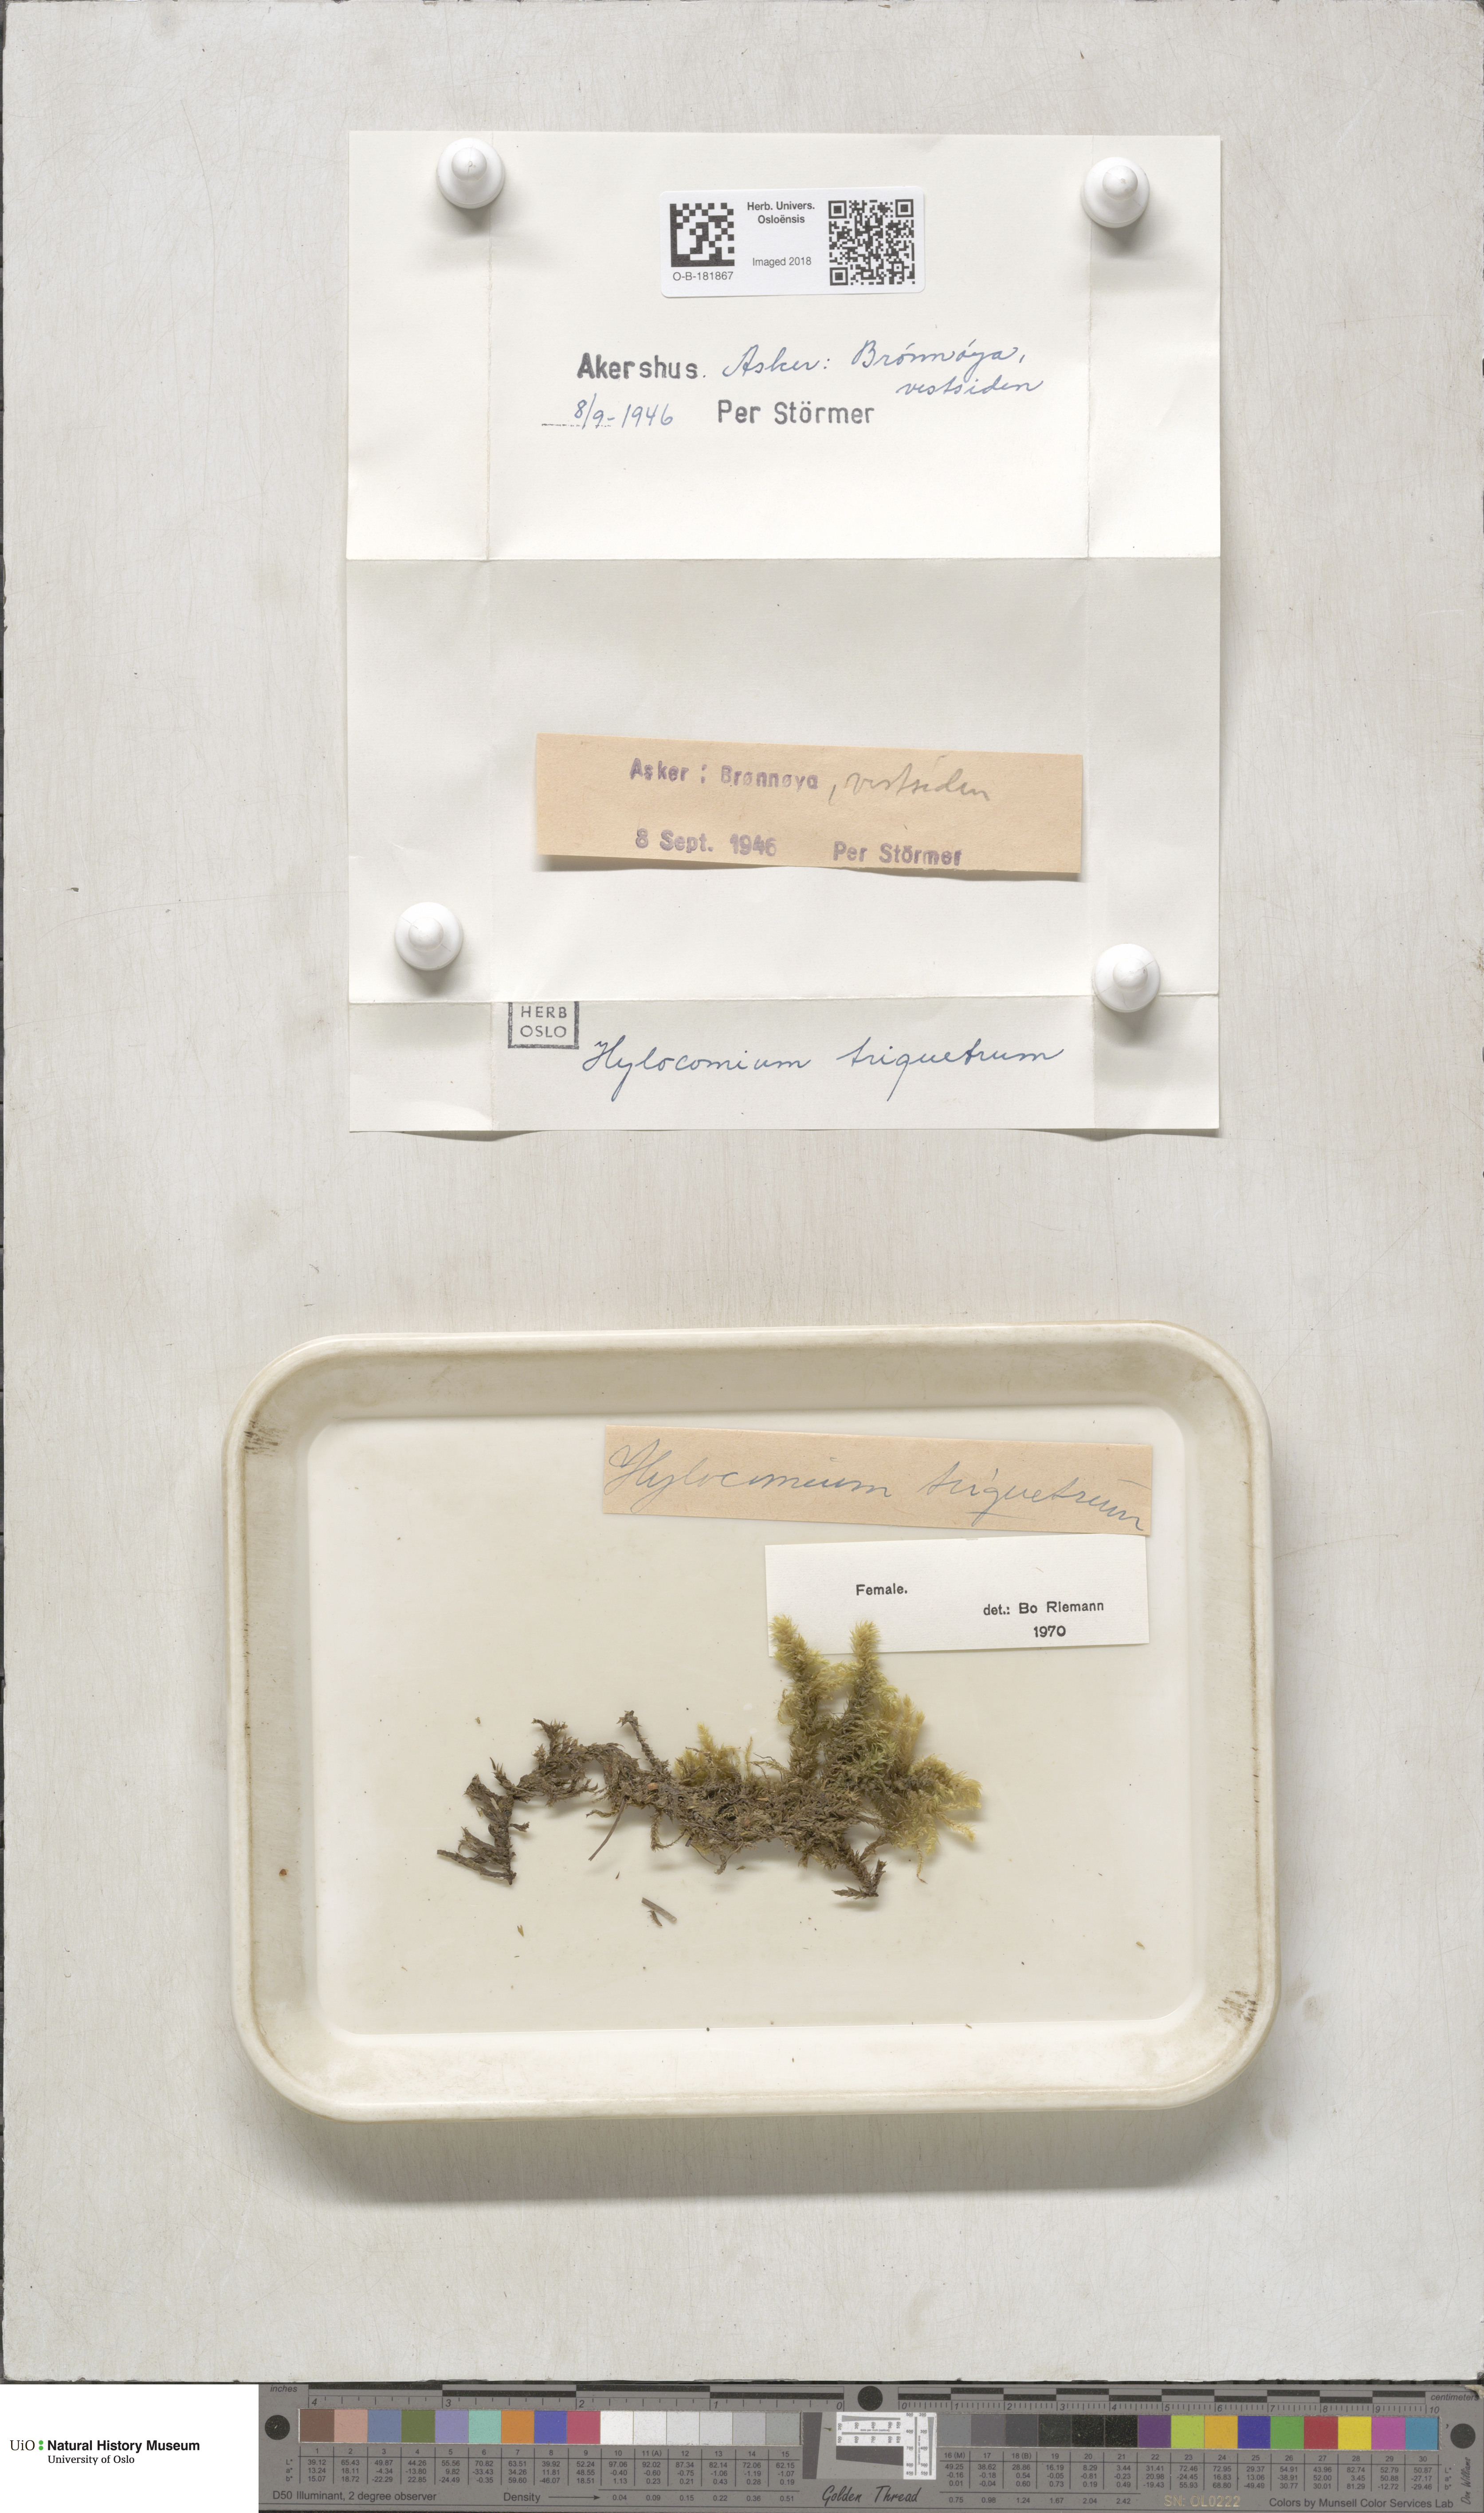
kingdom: Plantae
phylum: Bryophyta
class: Bryopsida
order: Hypnales
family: Hylocomiaceae
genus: Hylocomiadelphus
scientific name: Hylocomiadelphus triquetrus
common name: Rough goose neck moss
